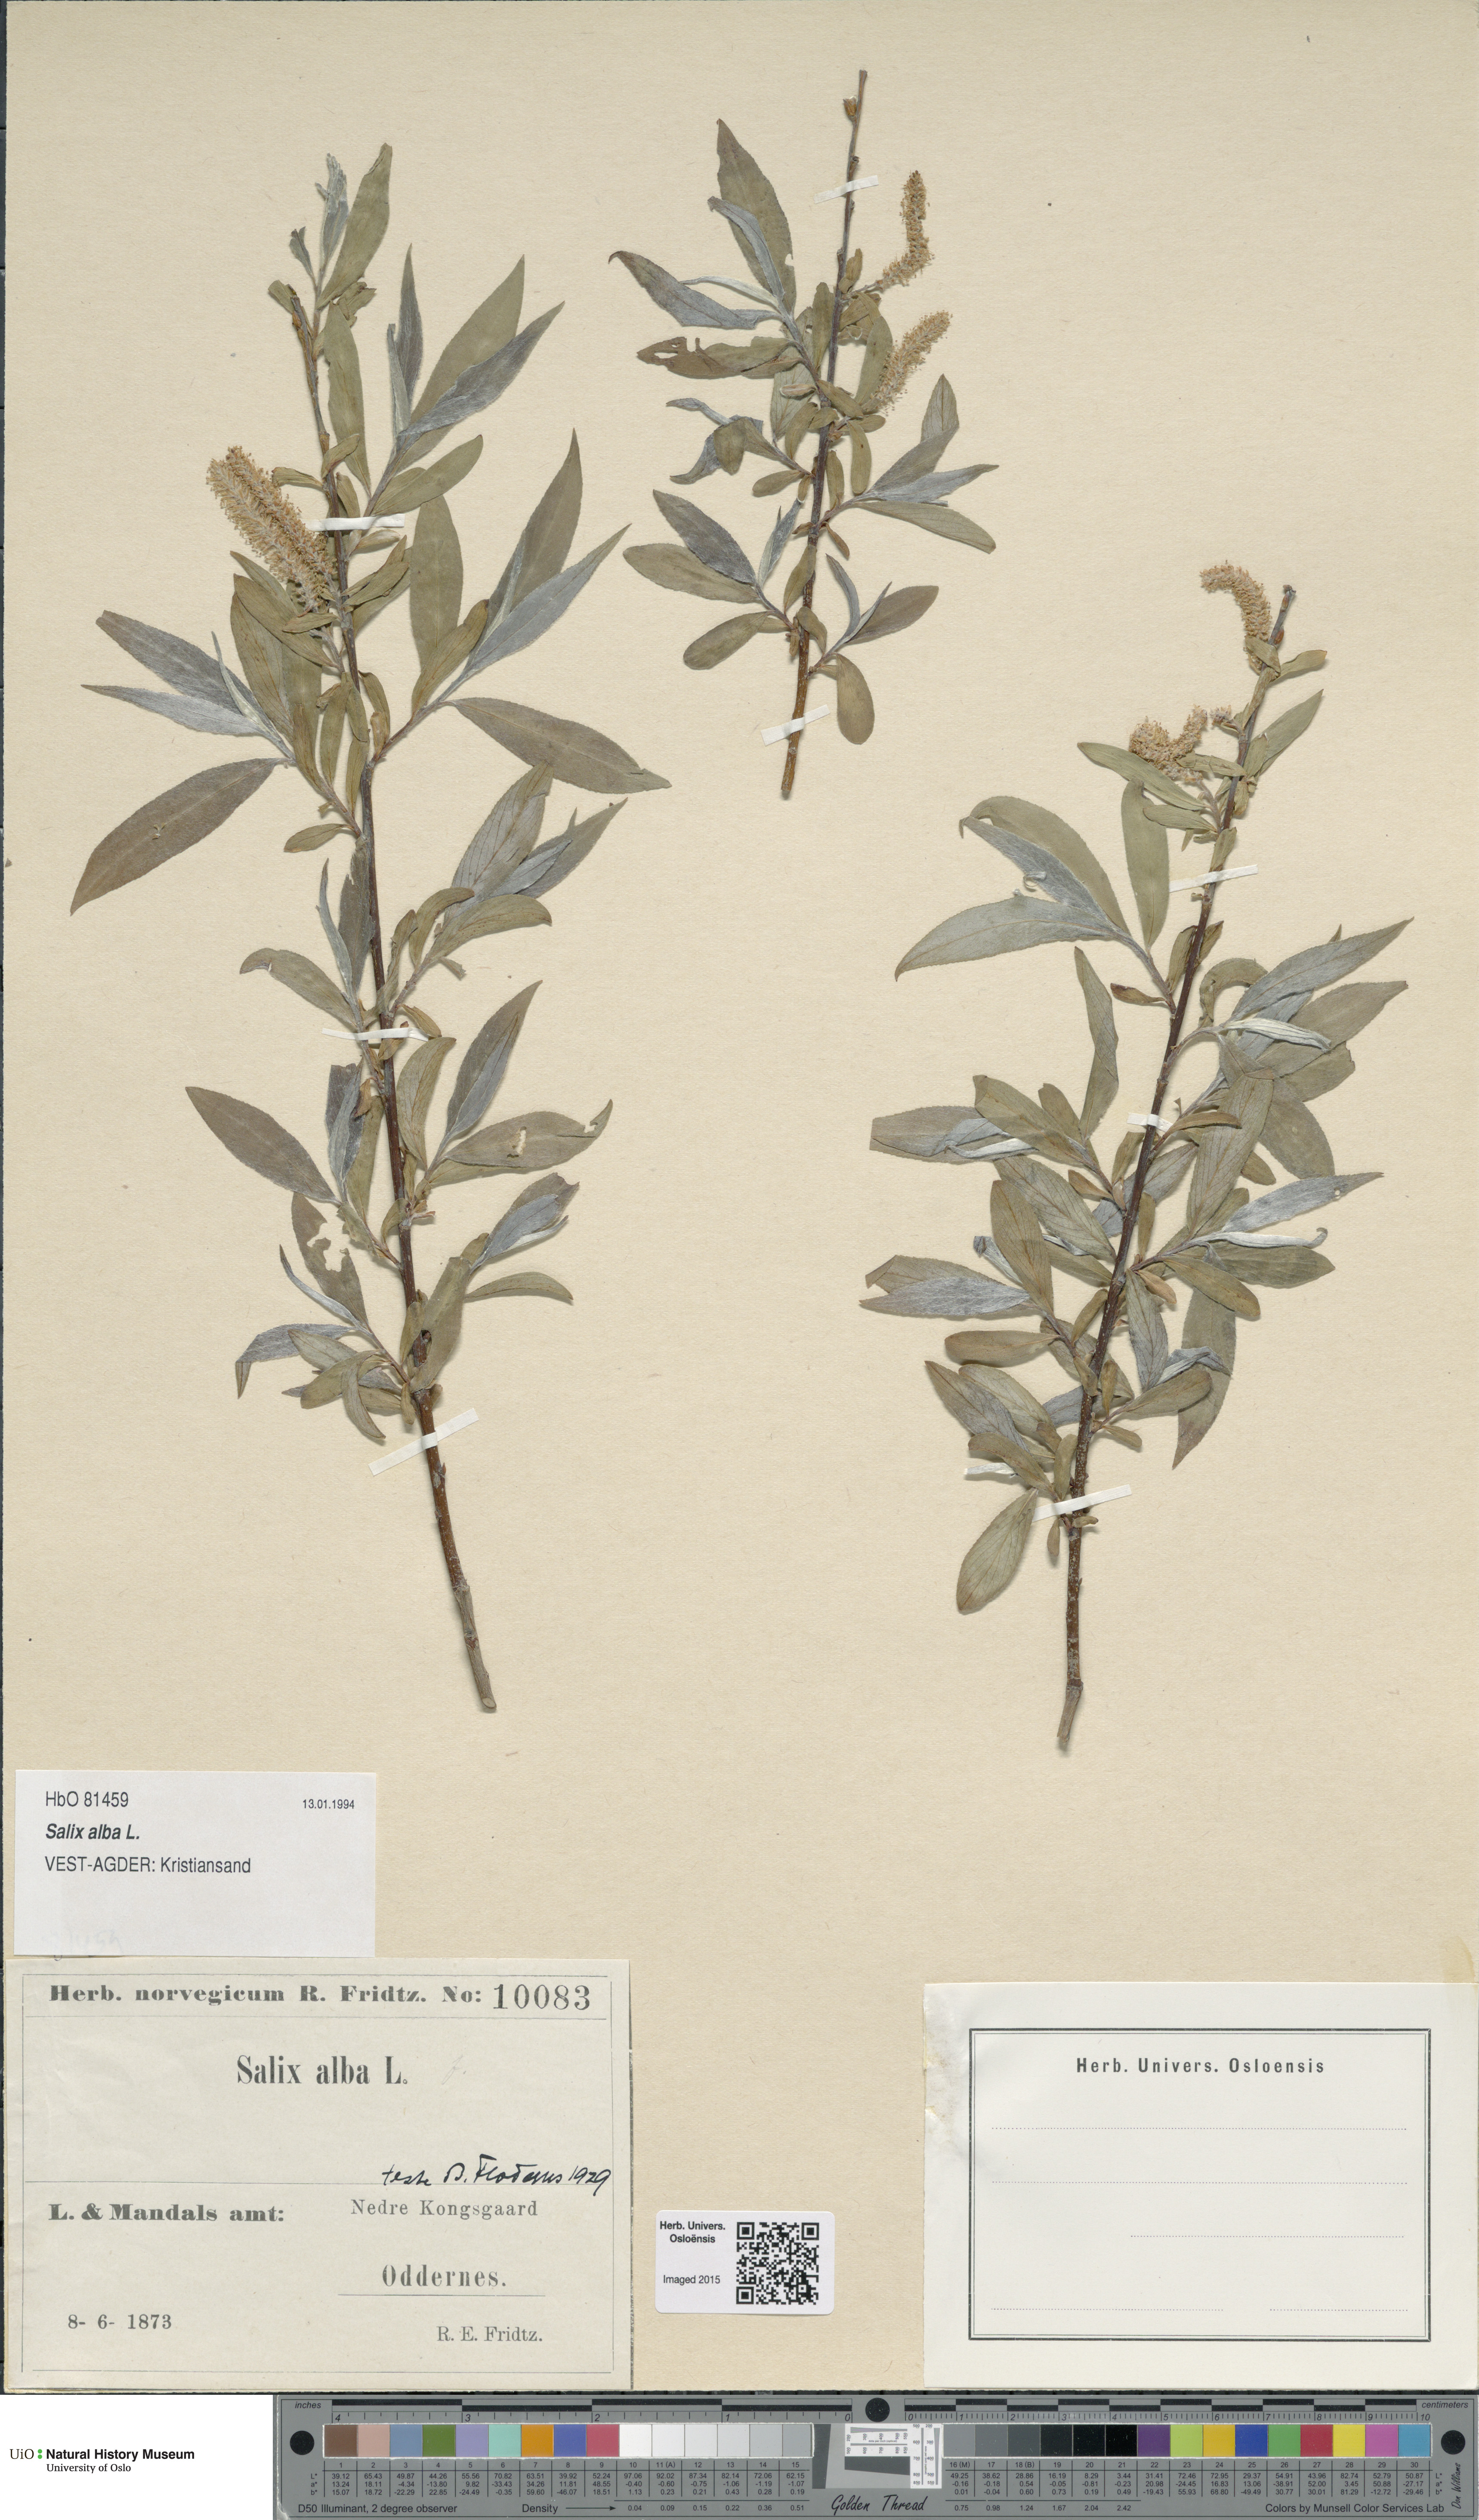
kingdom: Plantae
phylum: Tracheophyta
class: Magnoliopsida
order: Malpighiales
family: Salicaceae
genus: Salix
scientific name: Salix alba
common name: White willow
